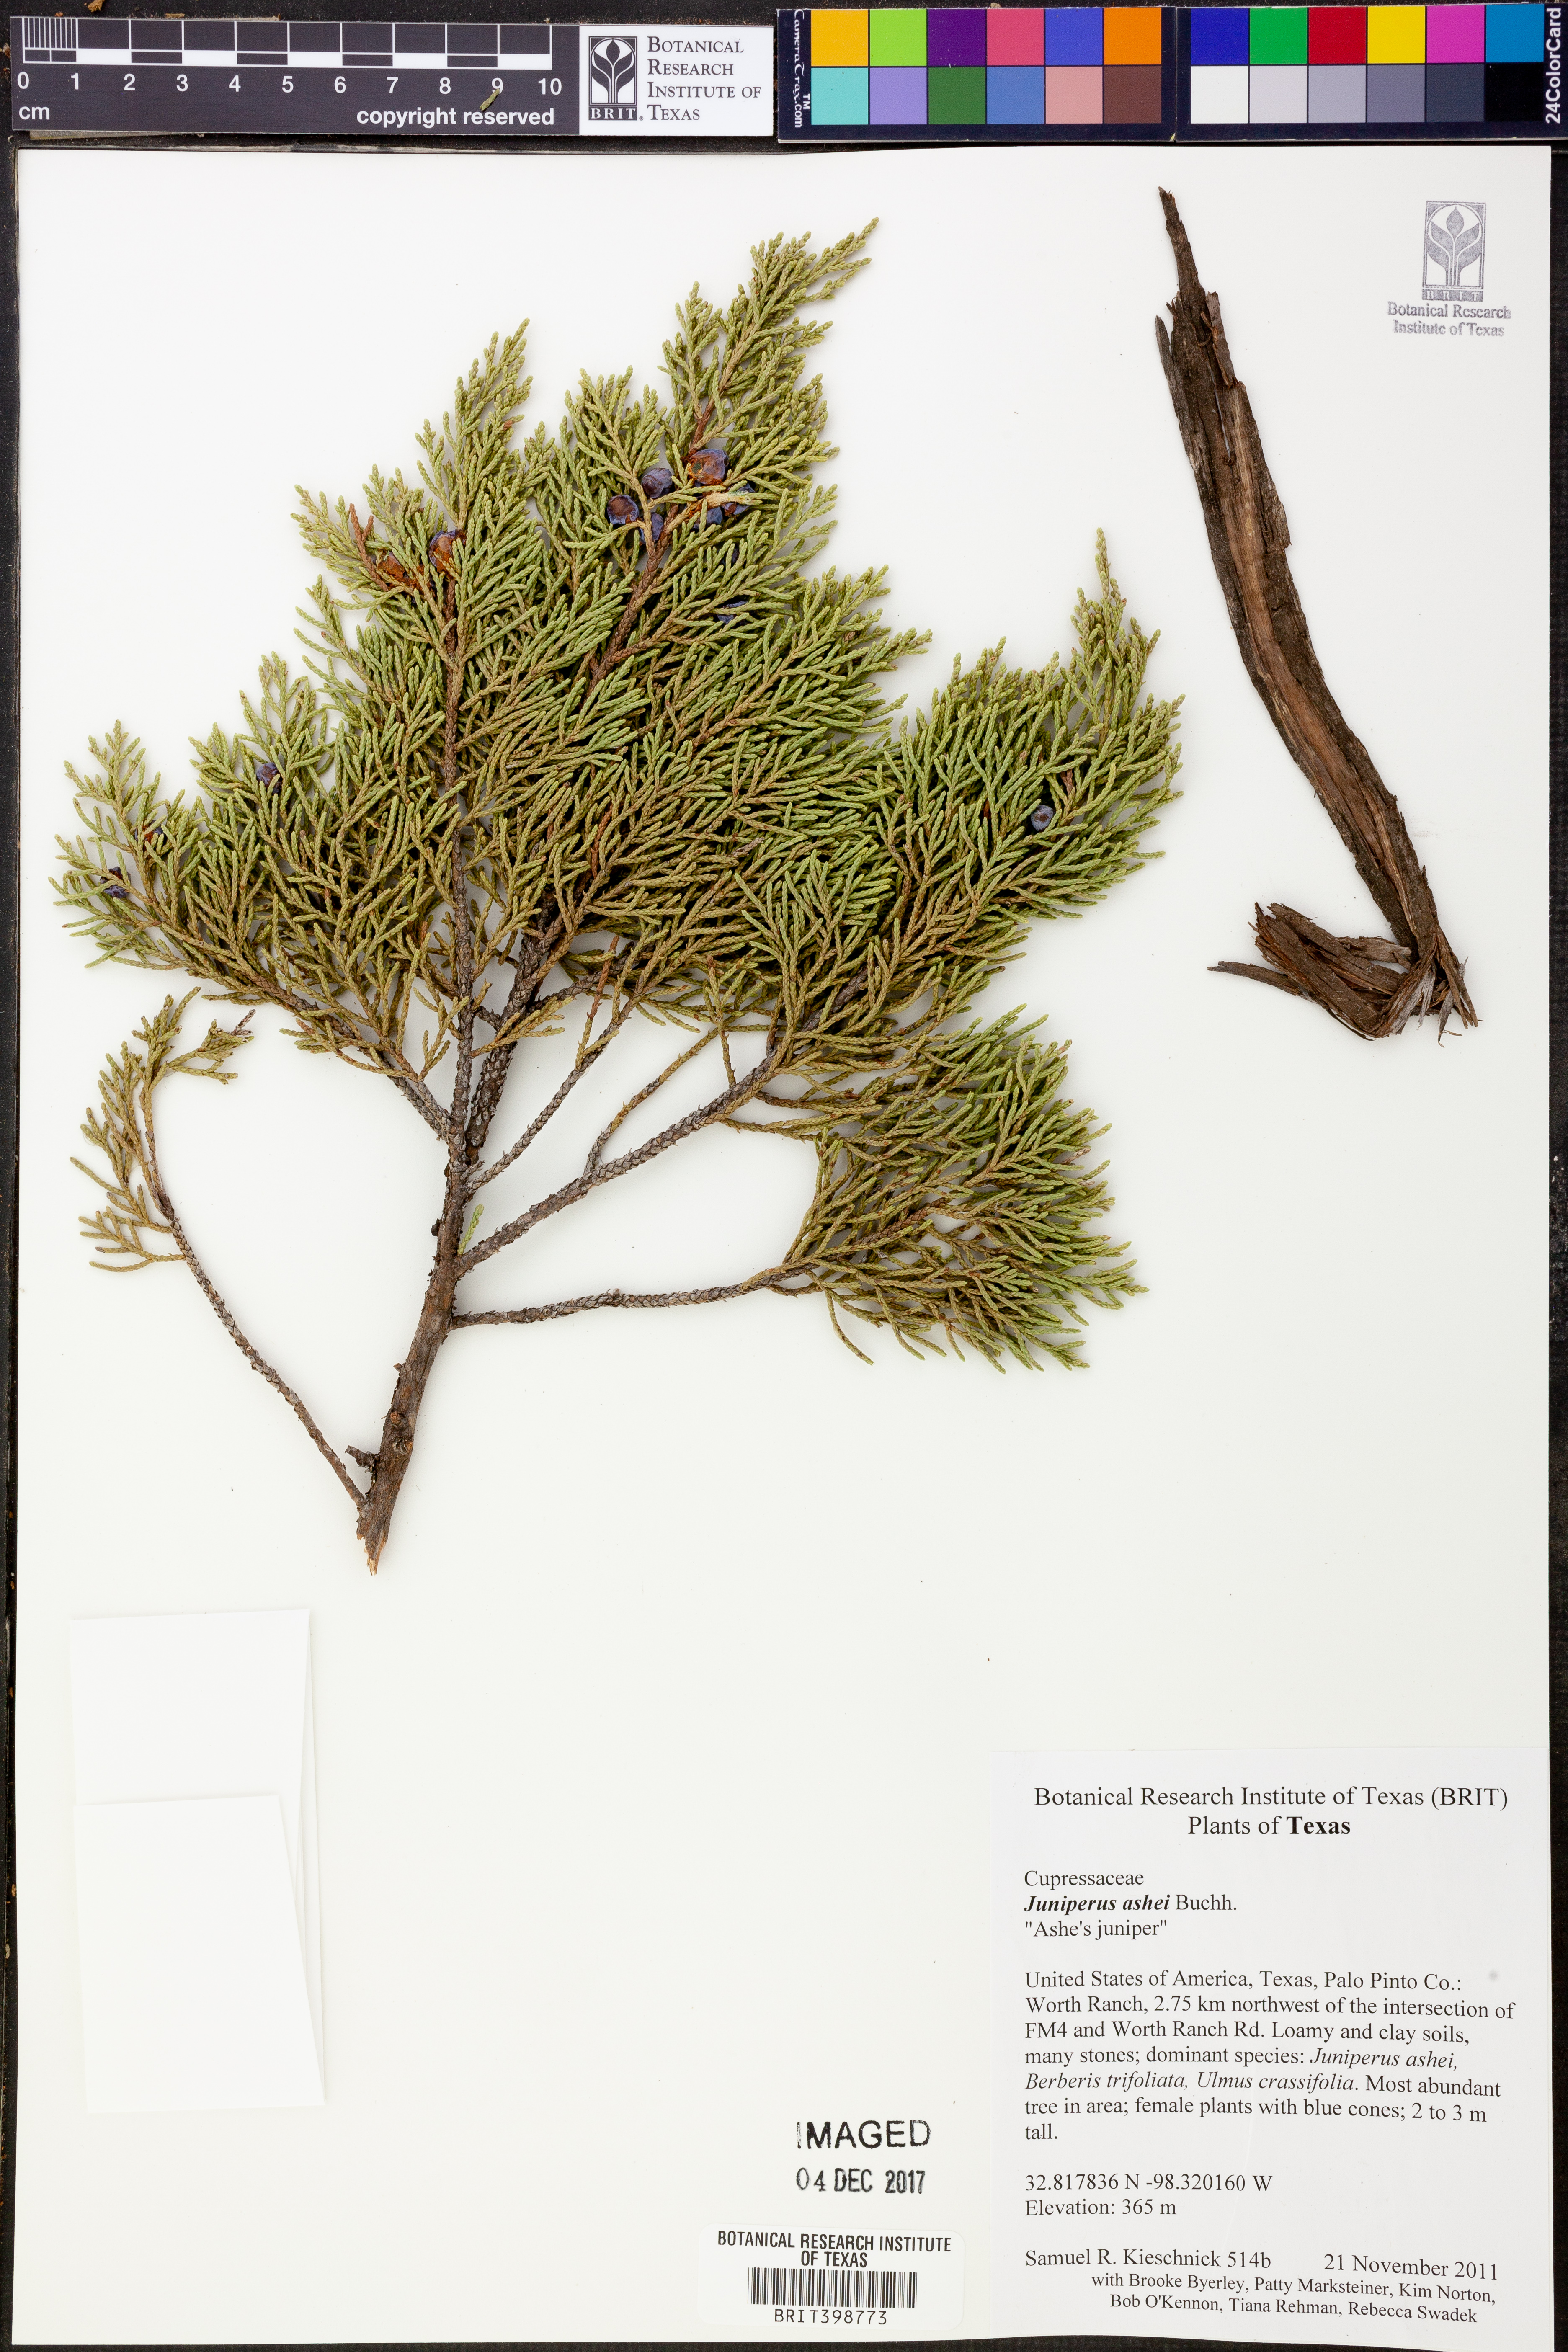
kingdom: Plantae
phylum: Tracheophyta
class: Pinopsida
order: Pinales
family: Cupressaceae
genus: Juniperus
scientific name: Juniperus ashei
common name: Mexican juniper
